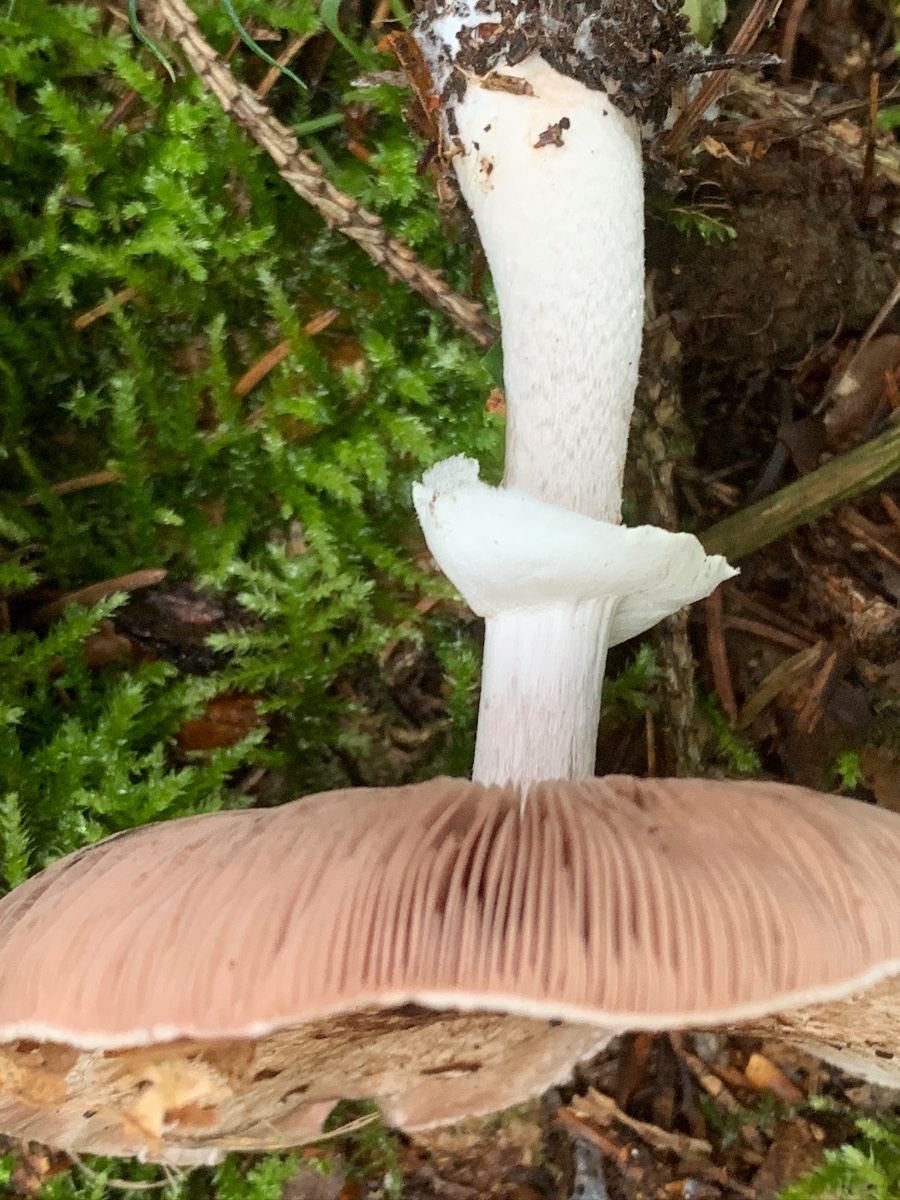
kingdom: Fungi
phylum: Basidiomycota
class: Agaricomycetes
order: Agaricales
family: Agaricaceae
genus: Agaricus
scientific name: Agaricus impudicus
